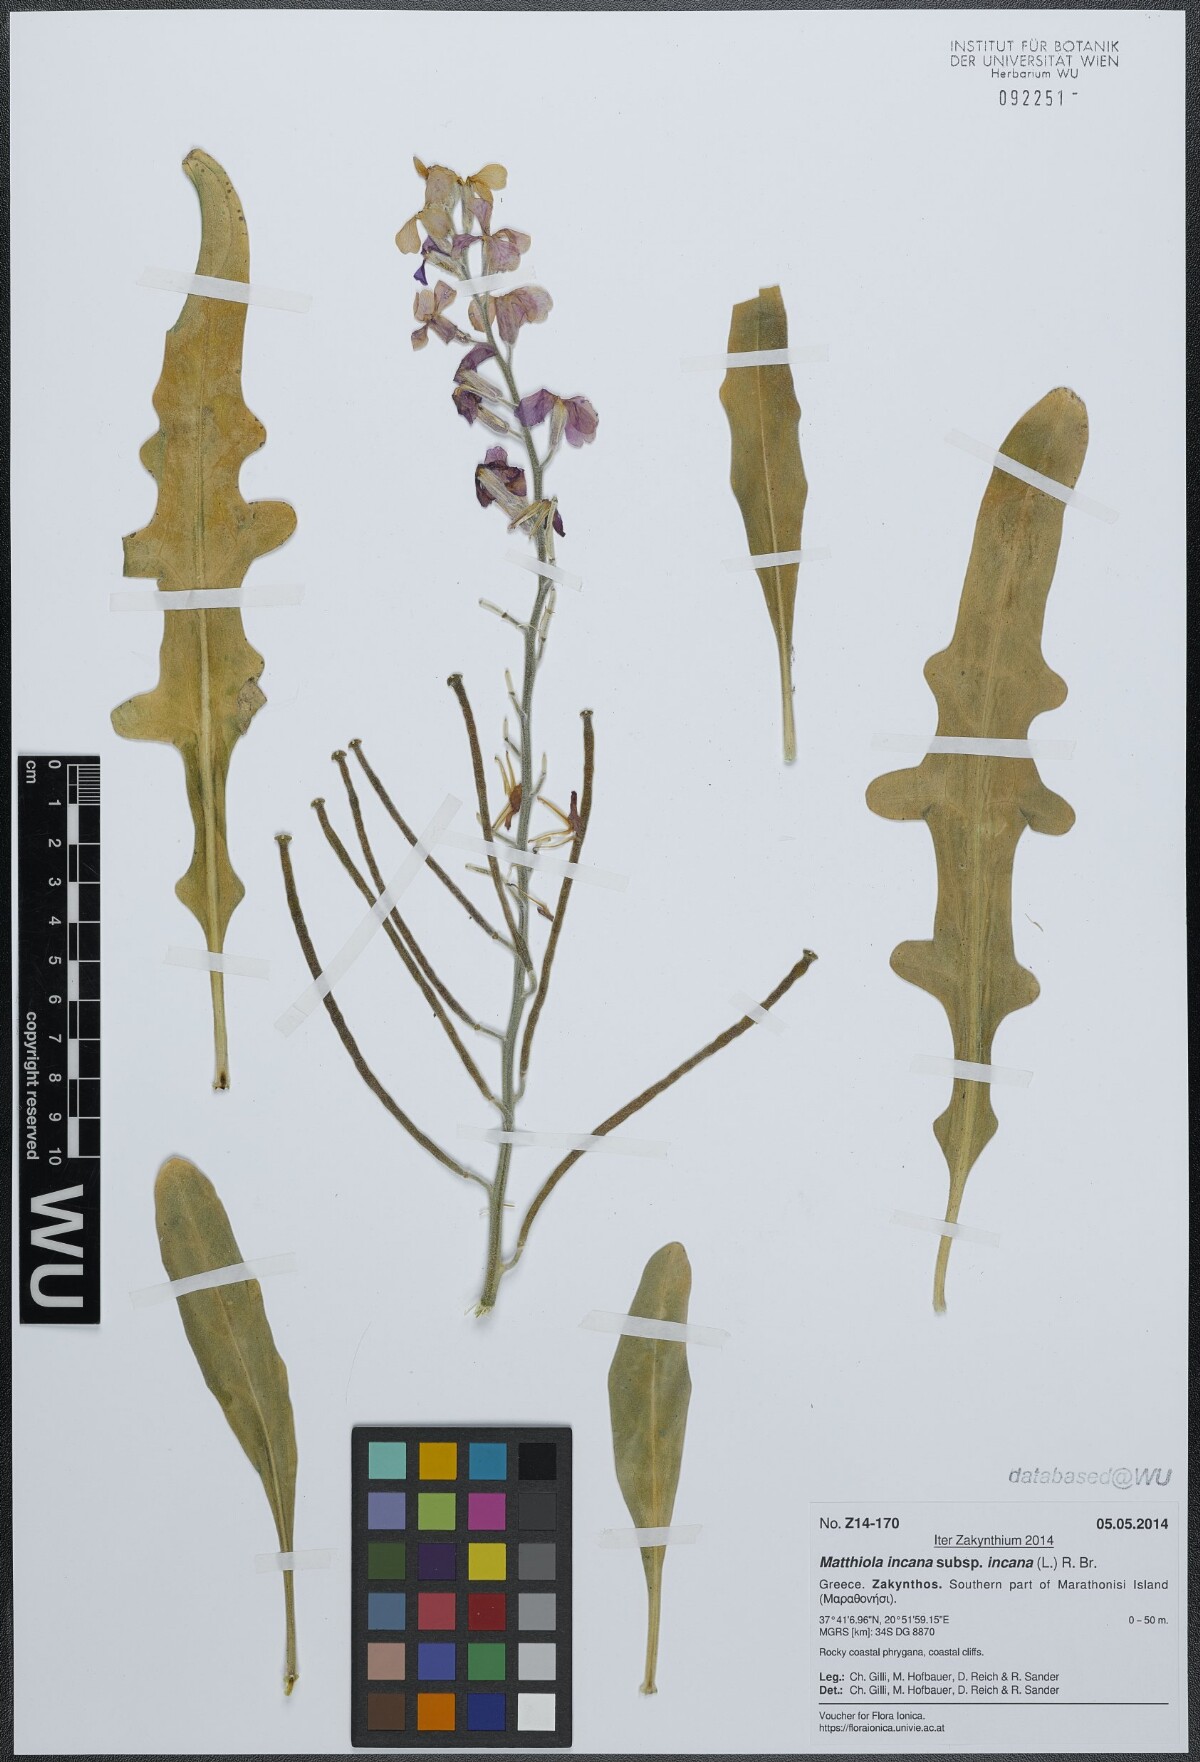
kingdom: Plantae
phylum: Tracheophyta
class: Magnoliopsida
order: Brassicales
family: Brassicaceae
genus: Matthiola
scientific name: Matthiola incana
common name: Hoary stock
